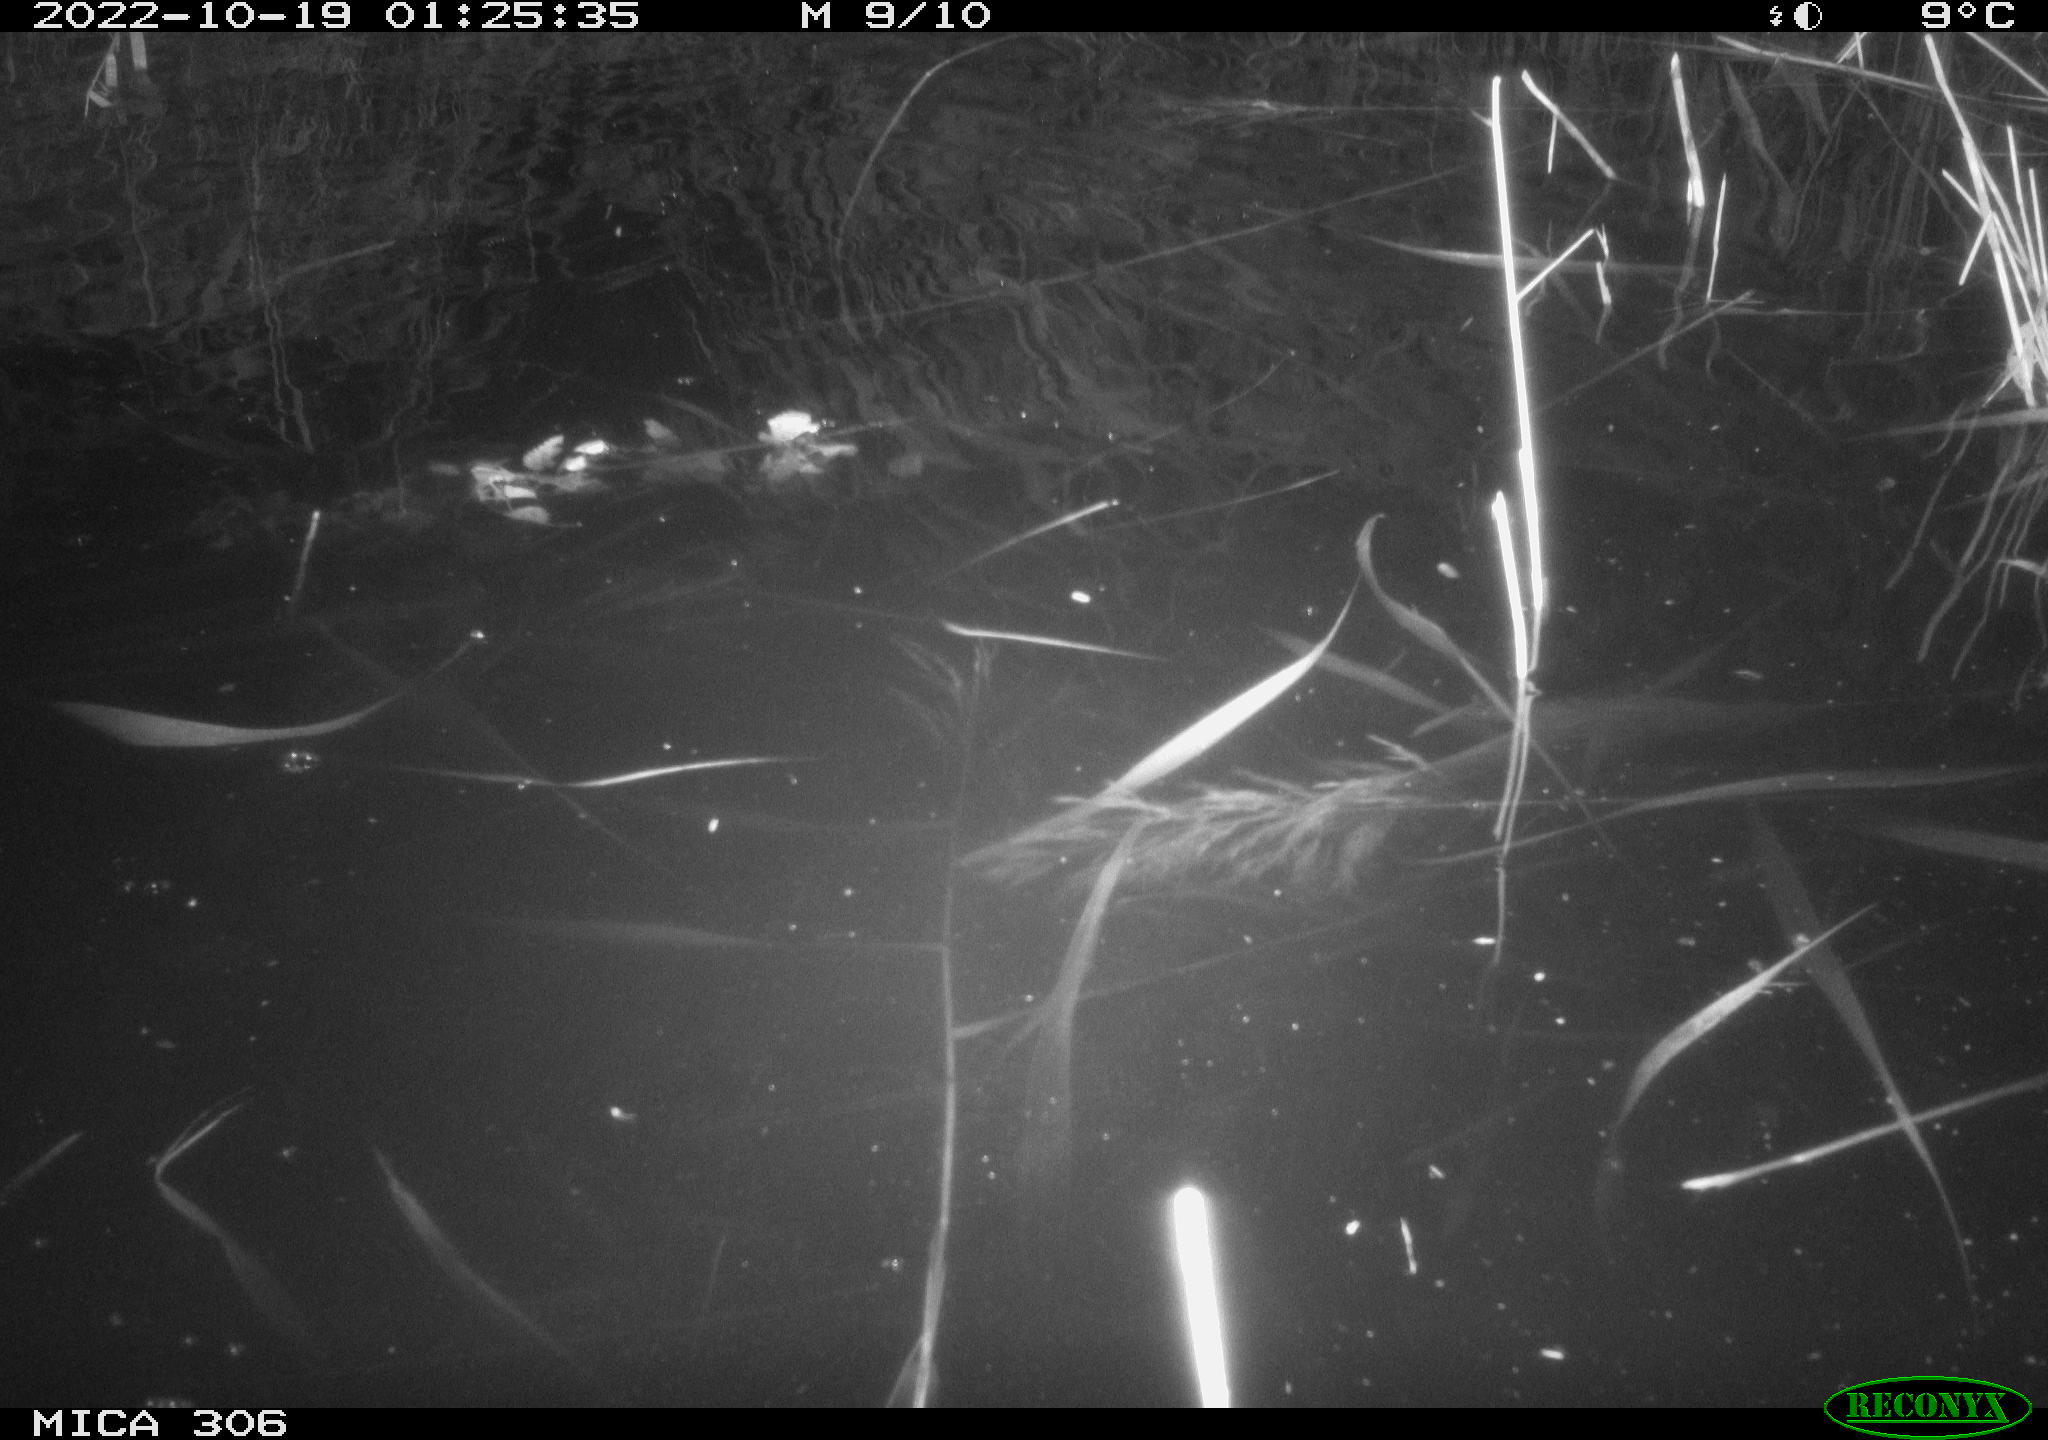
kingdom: Animalia
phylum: Chordata
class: Mammalia
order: Rodentia
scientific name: Rodentia
